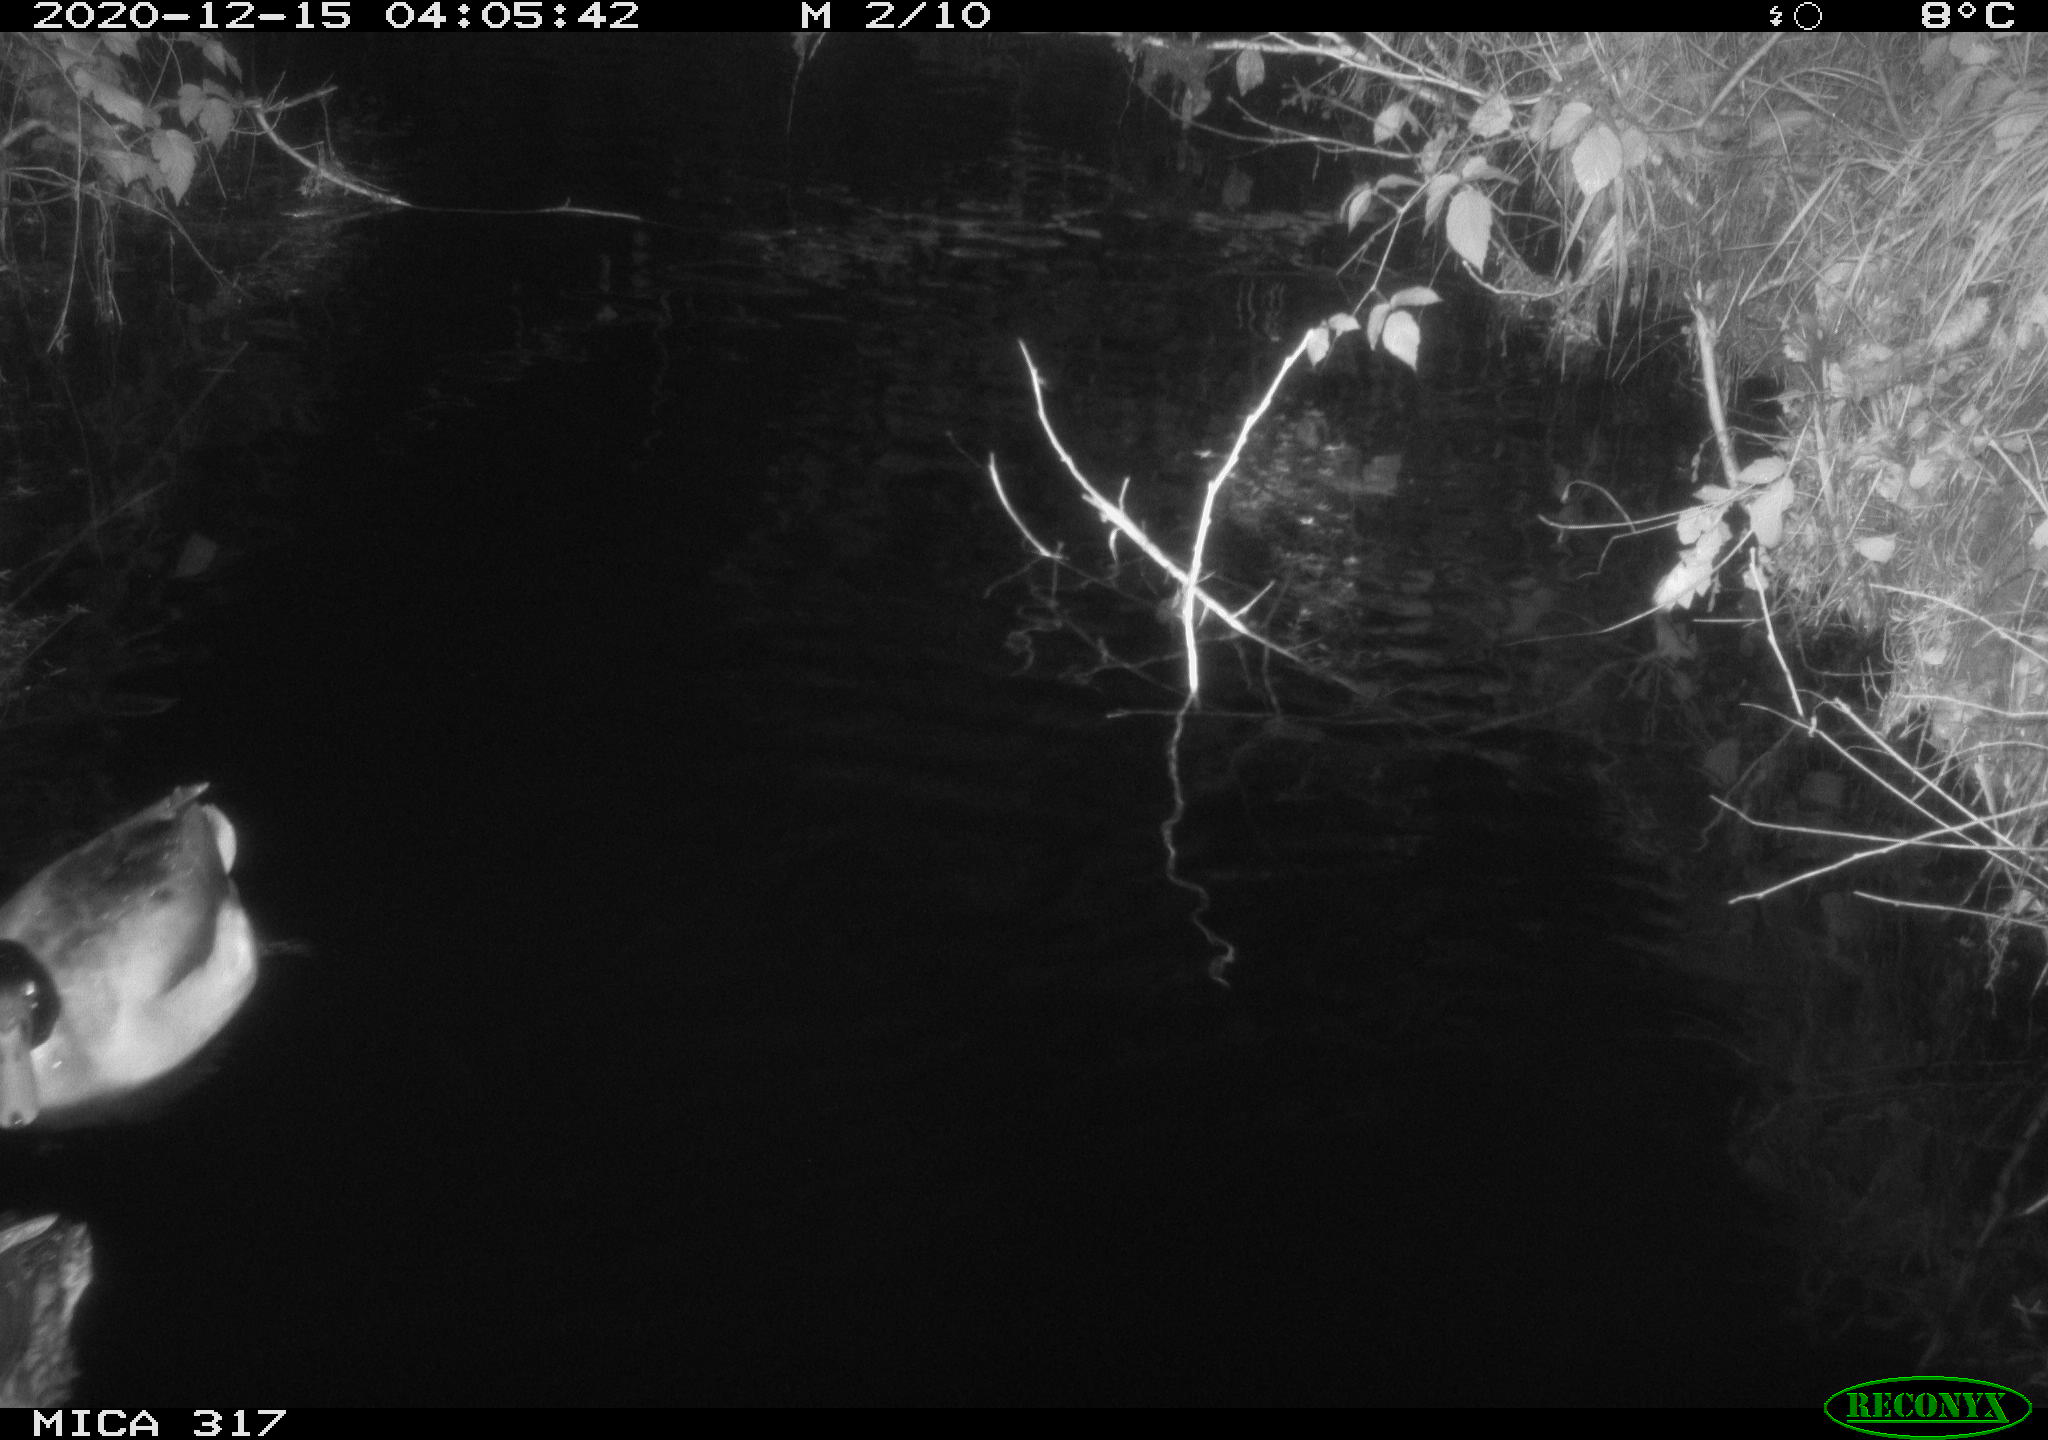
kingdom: Animalia
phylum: Chordata
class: Aves
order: Anseriformes
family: Anatidae
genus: Anas
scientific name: Anas platyrhynchos
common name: Mallard
